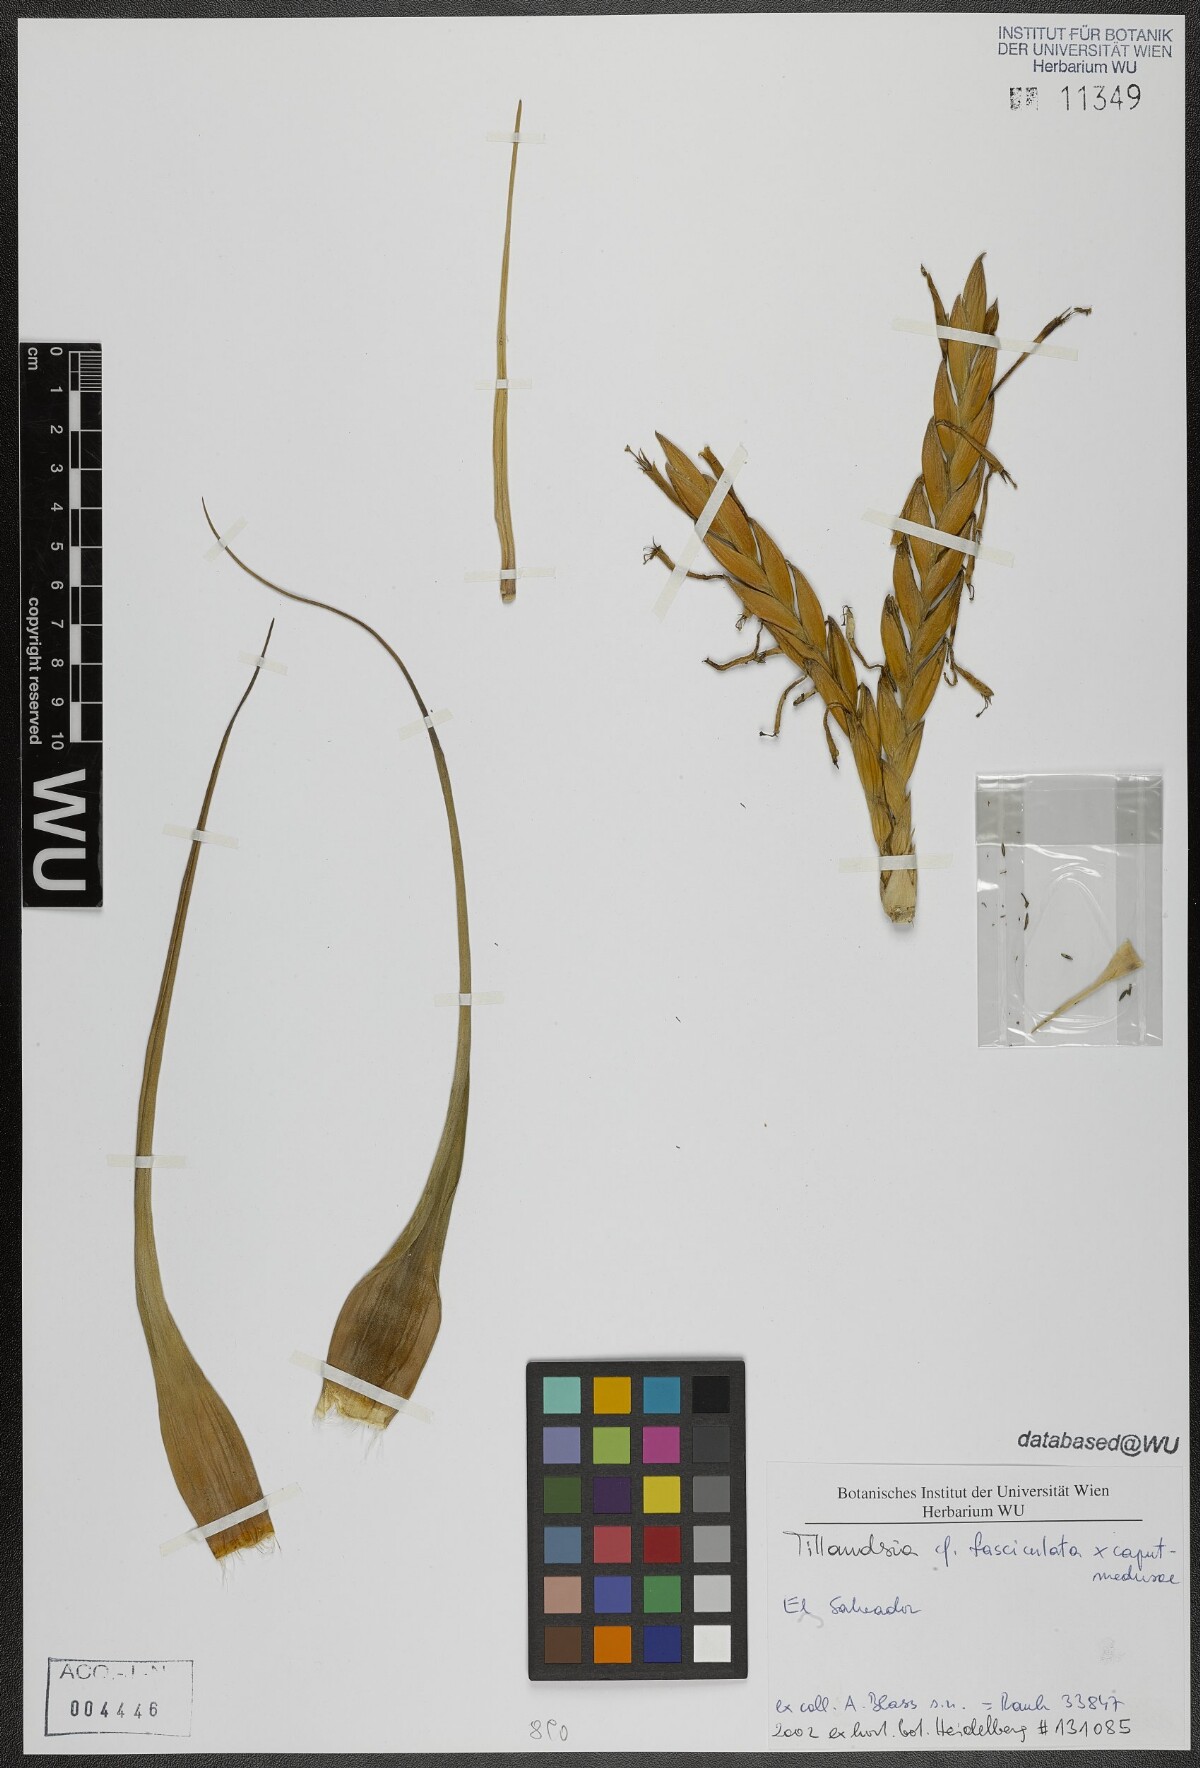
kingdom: Plantae
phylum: Tracheophyta
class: Liliopsida
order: Poales
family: Bromeliaceae
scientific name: Bromeliaceae
